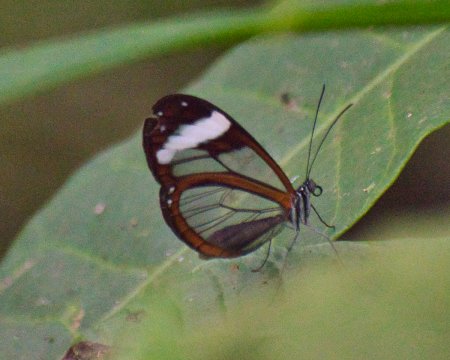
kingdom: Animalia
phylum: Arthropoda
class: Insecta
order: Lepidoptera
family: Nymphalidae
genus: Oleria
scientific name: Oleria paula
